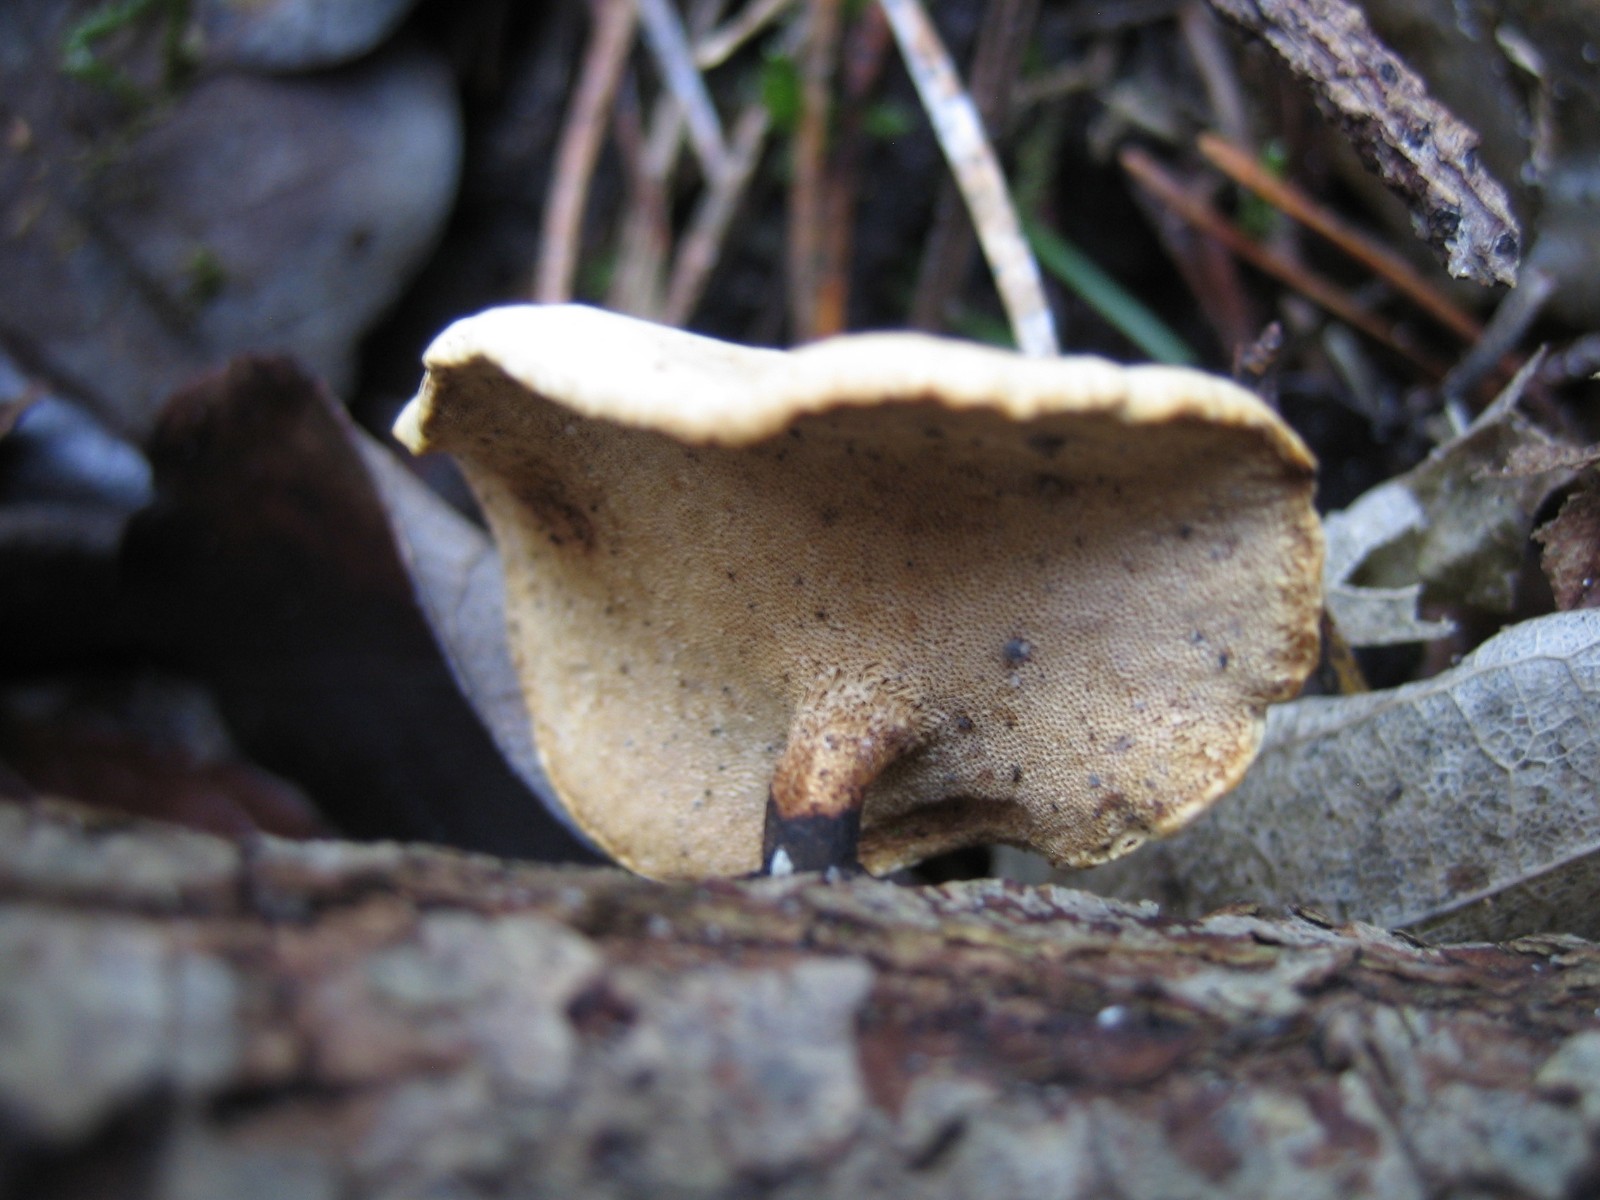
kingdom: Fungi
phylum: Basidiomycota
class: Agaricomycetes
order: Polyporales
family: Polyporaceae
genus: Cerioporus
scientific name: Cerioporus varius
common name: foranderlig stilkporesvamp
